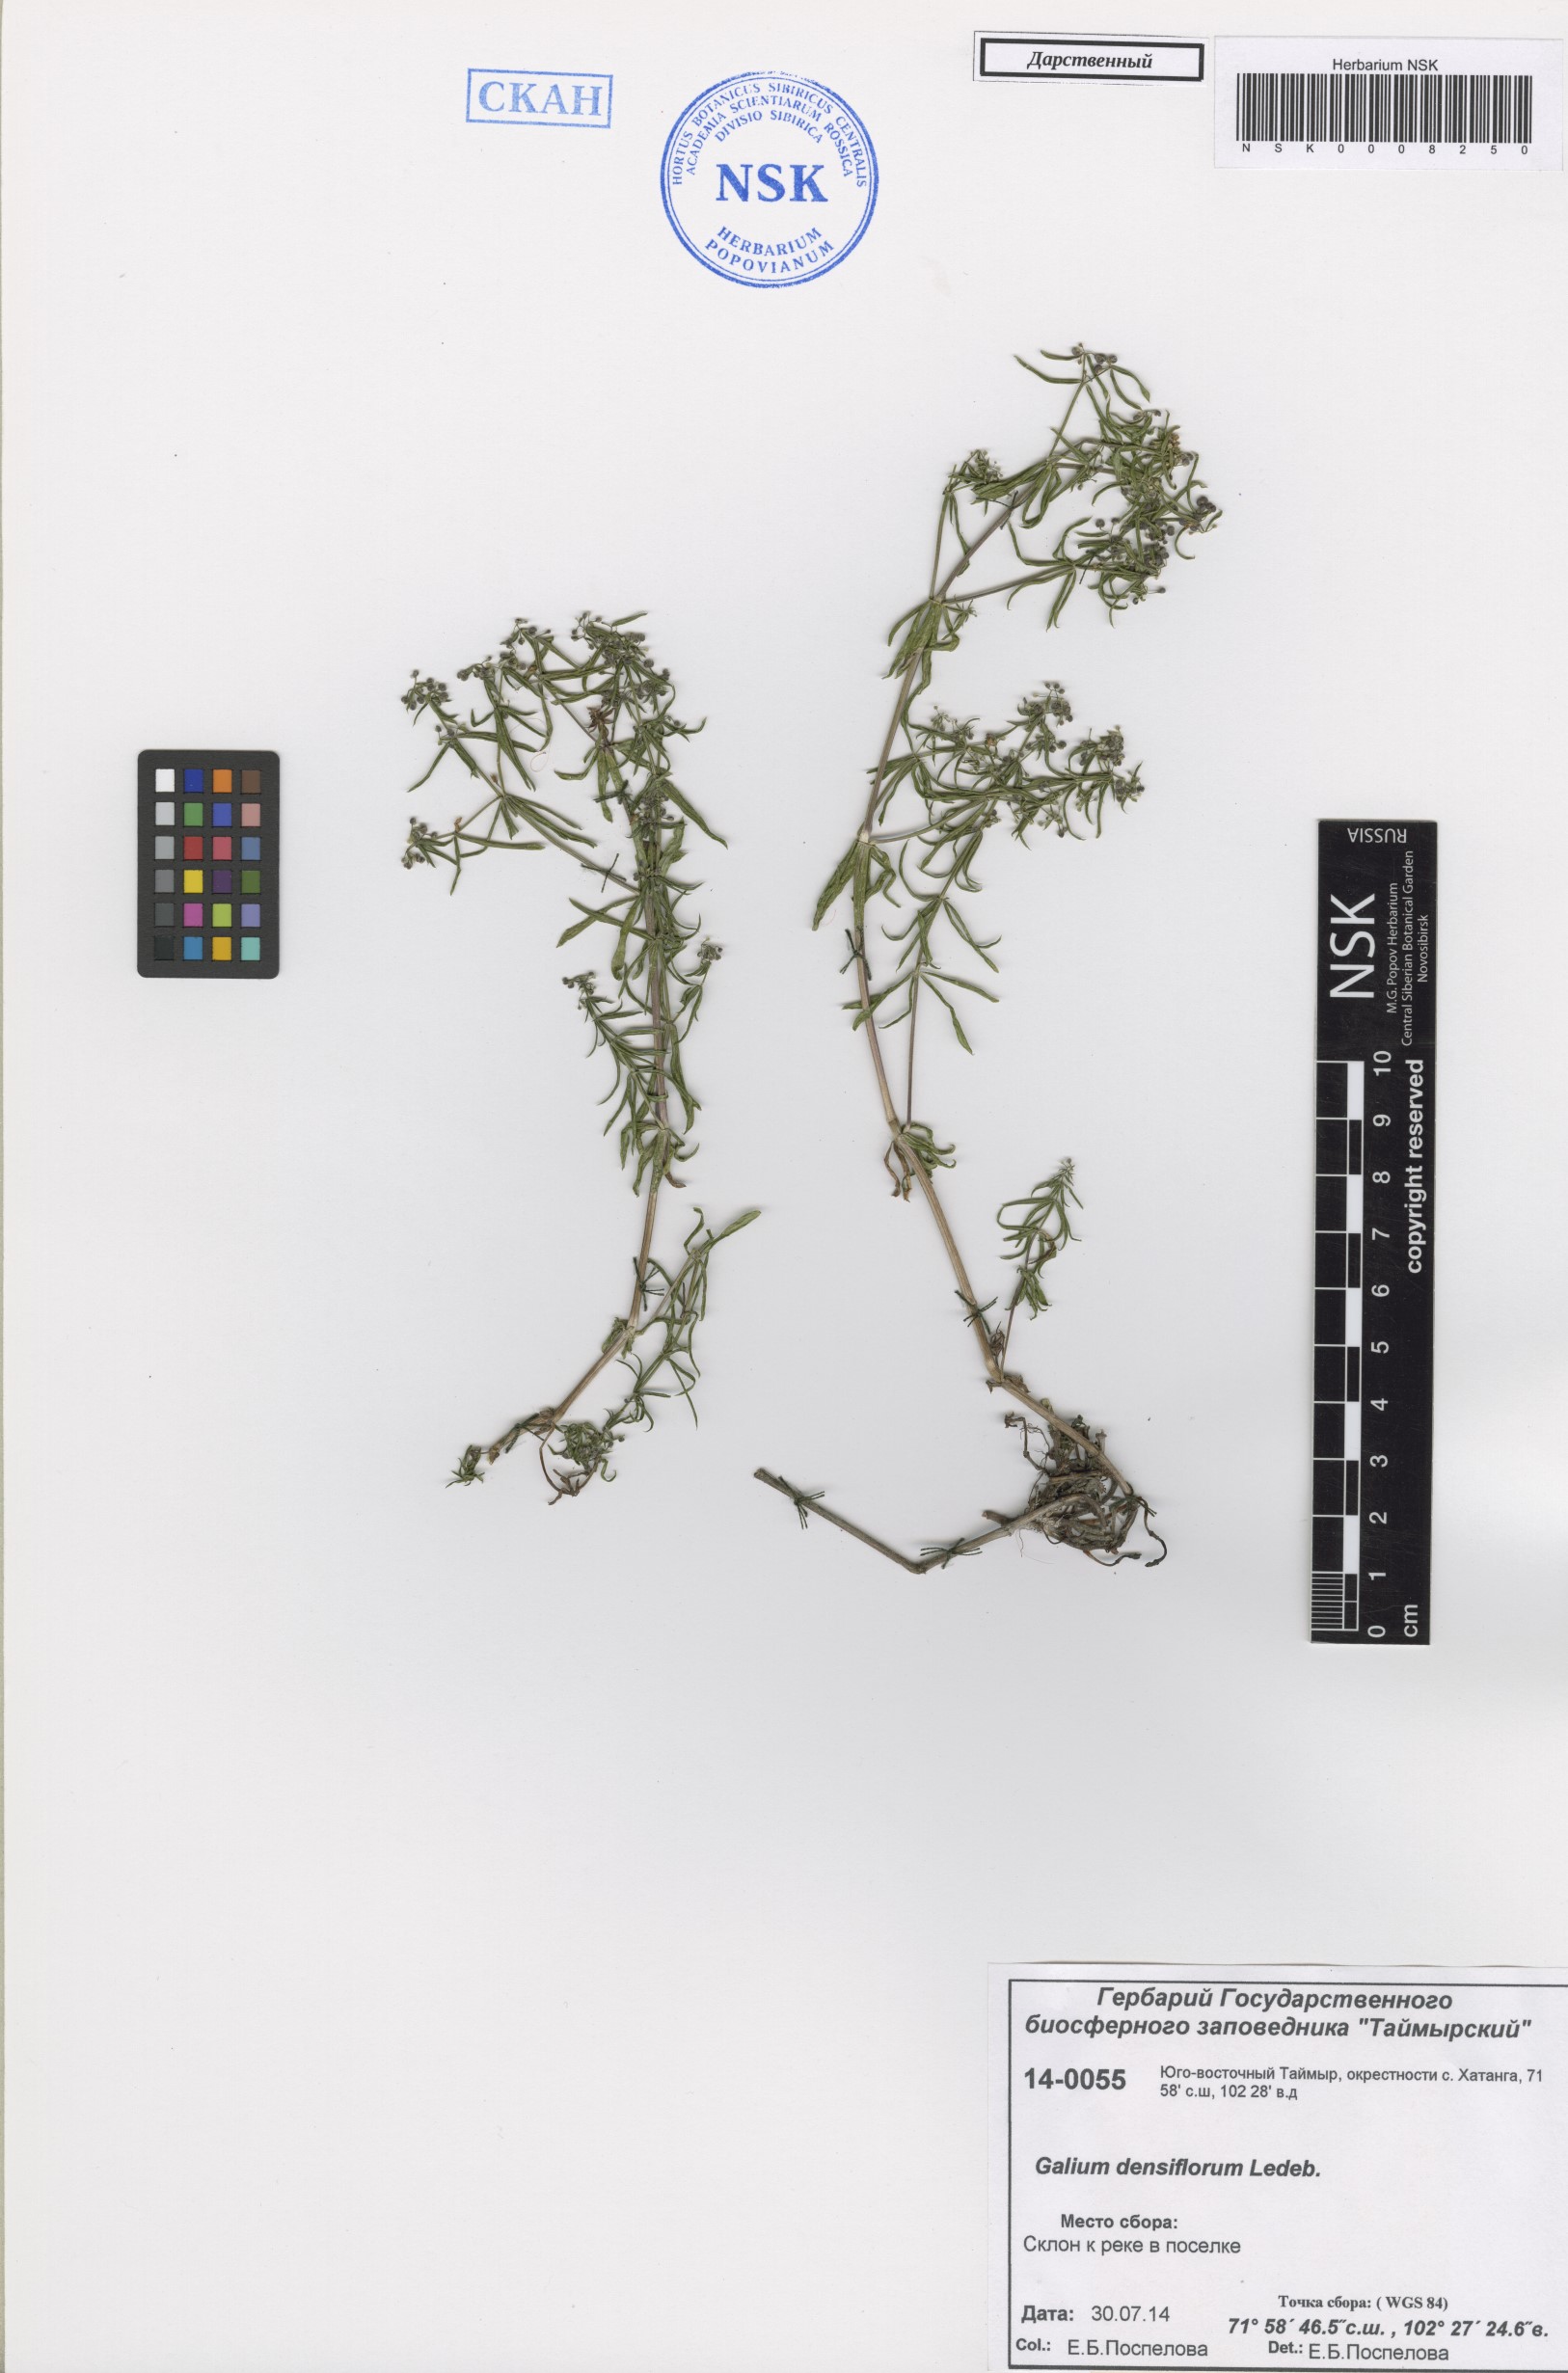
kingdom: Plantae
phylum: Tracheophyta
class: Magnoliopsida
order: Gentianales
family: Rubiaceae
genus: Galium
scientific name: Galium densiflorum
